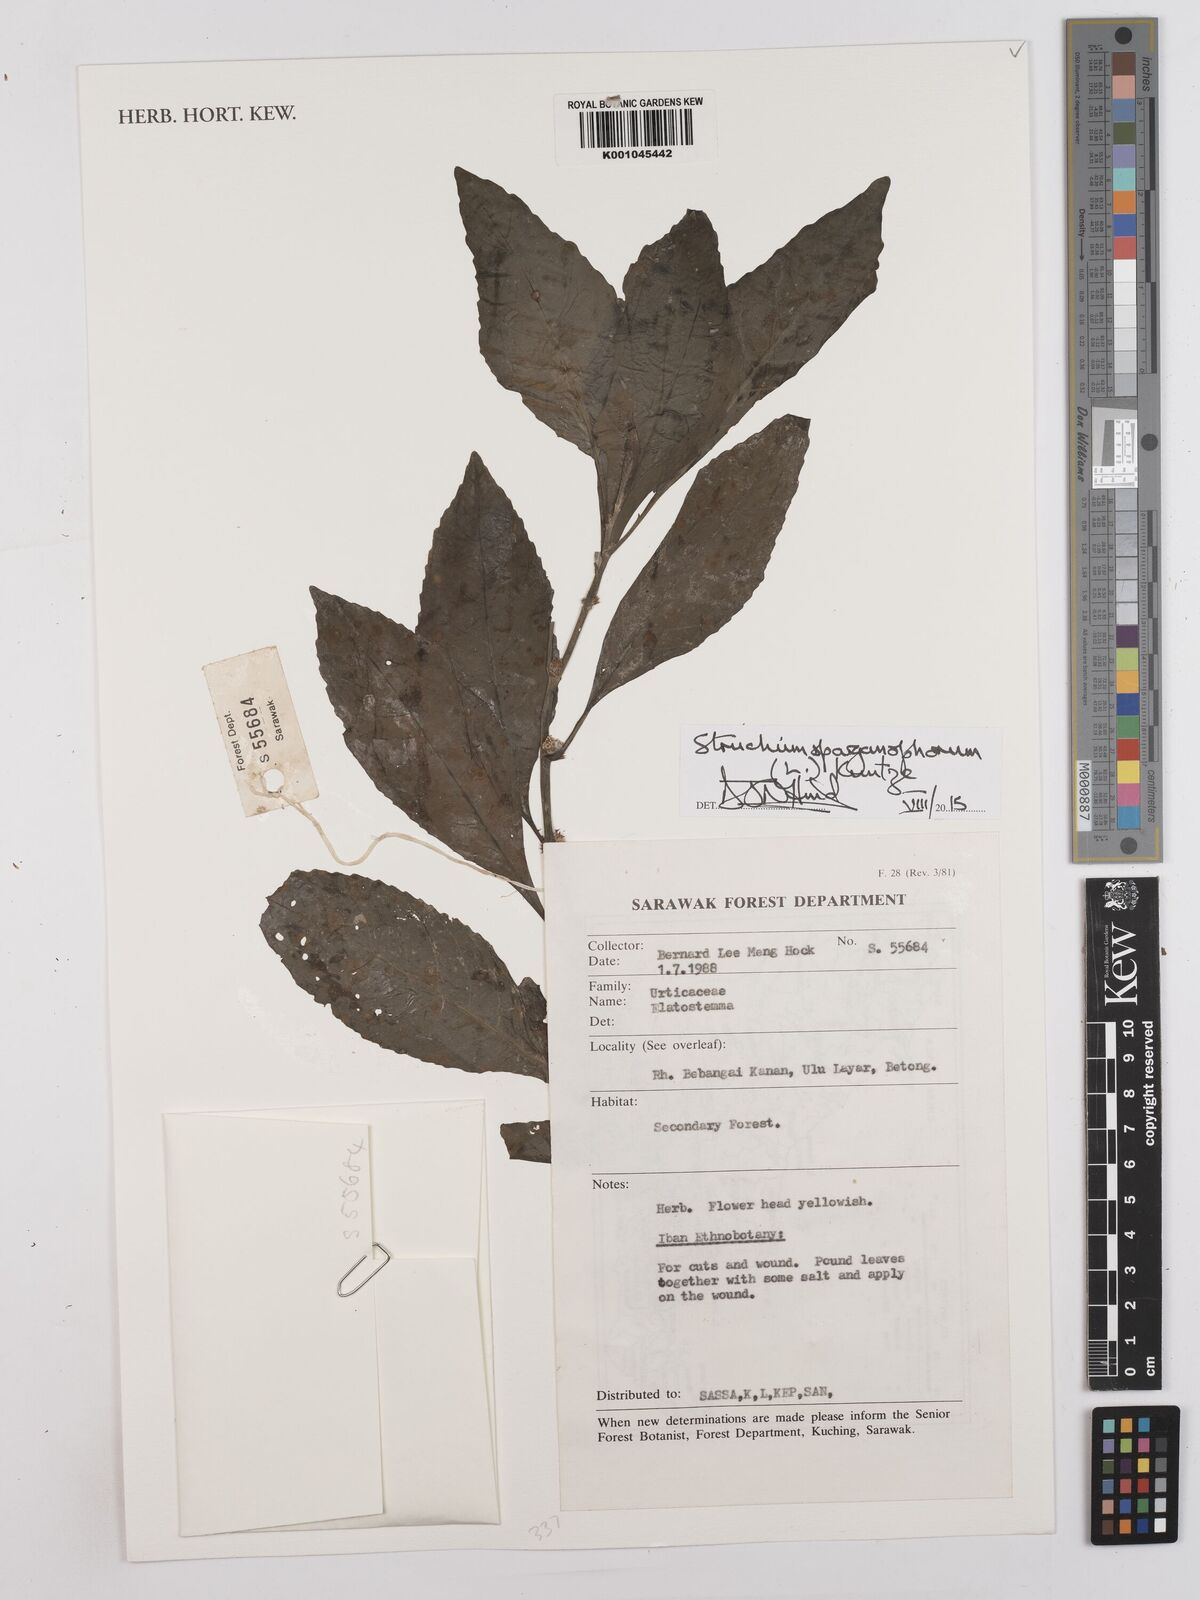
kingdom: Plantae
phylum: Tracheophyta
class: Magnoliopsida
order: Asterales
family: Asteraceae
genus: Struchium
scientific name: Struchium sparganophorum
